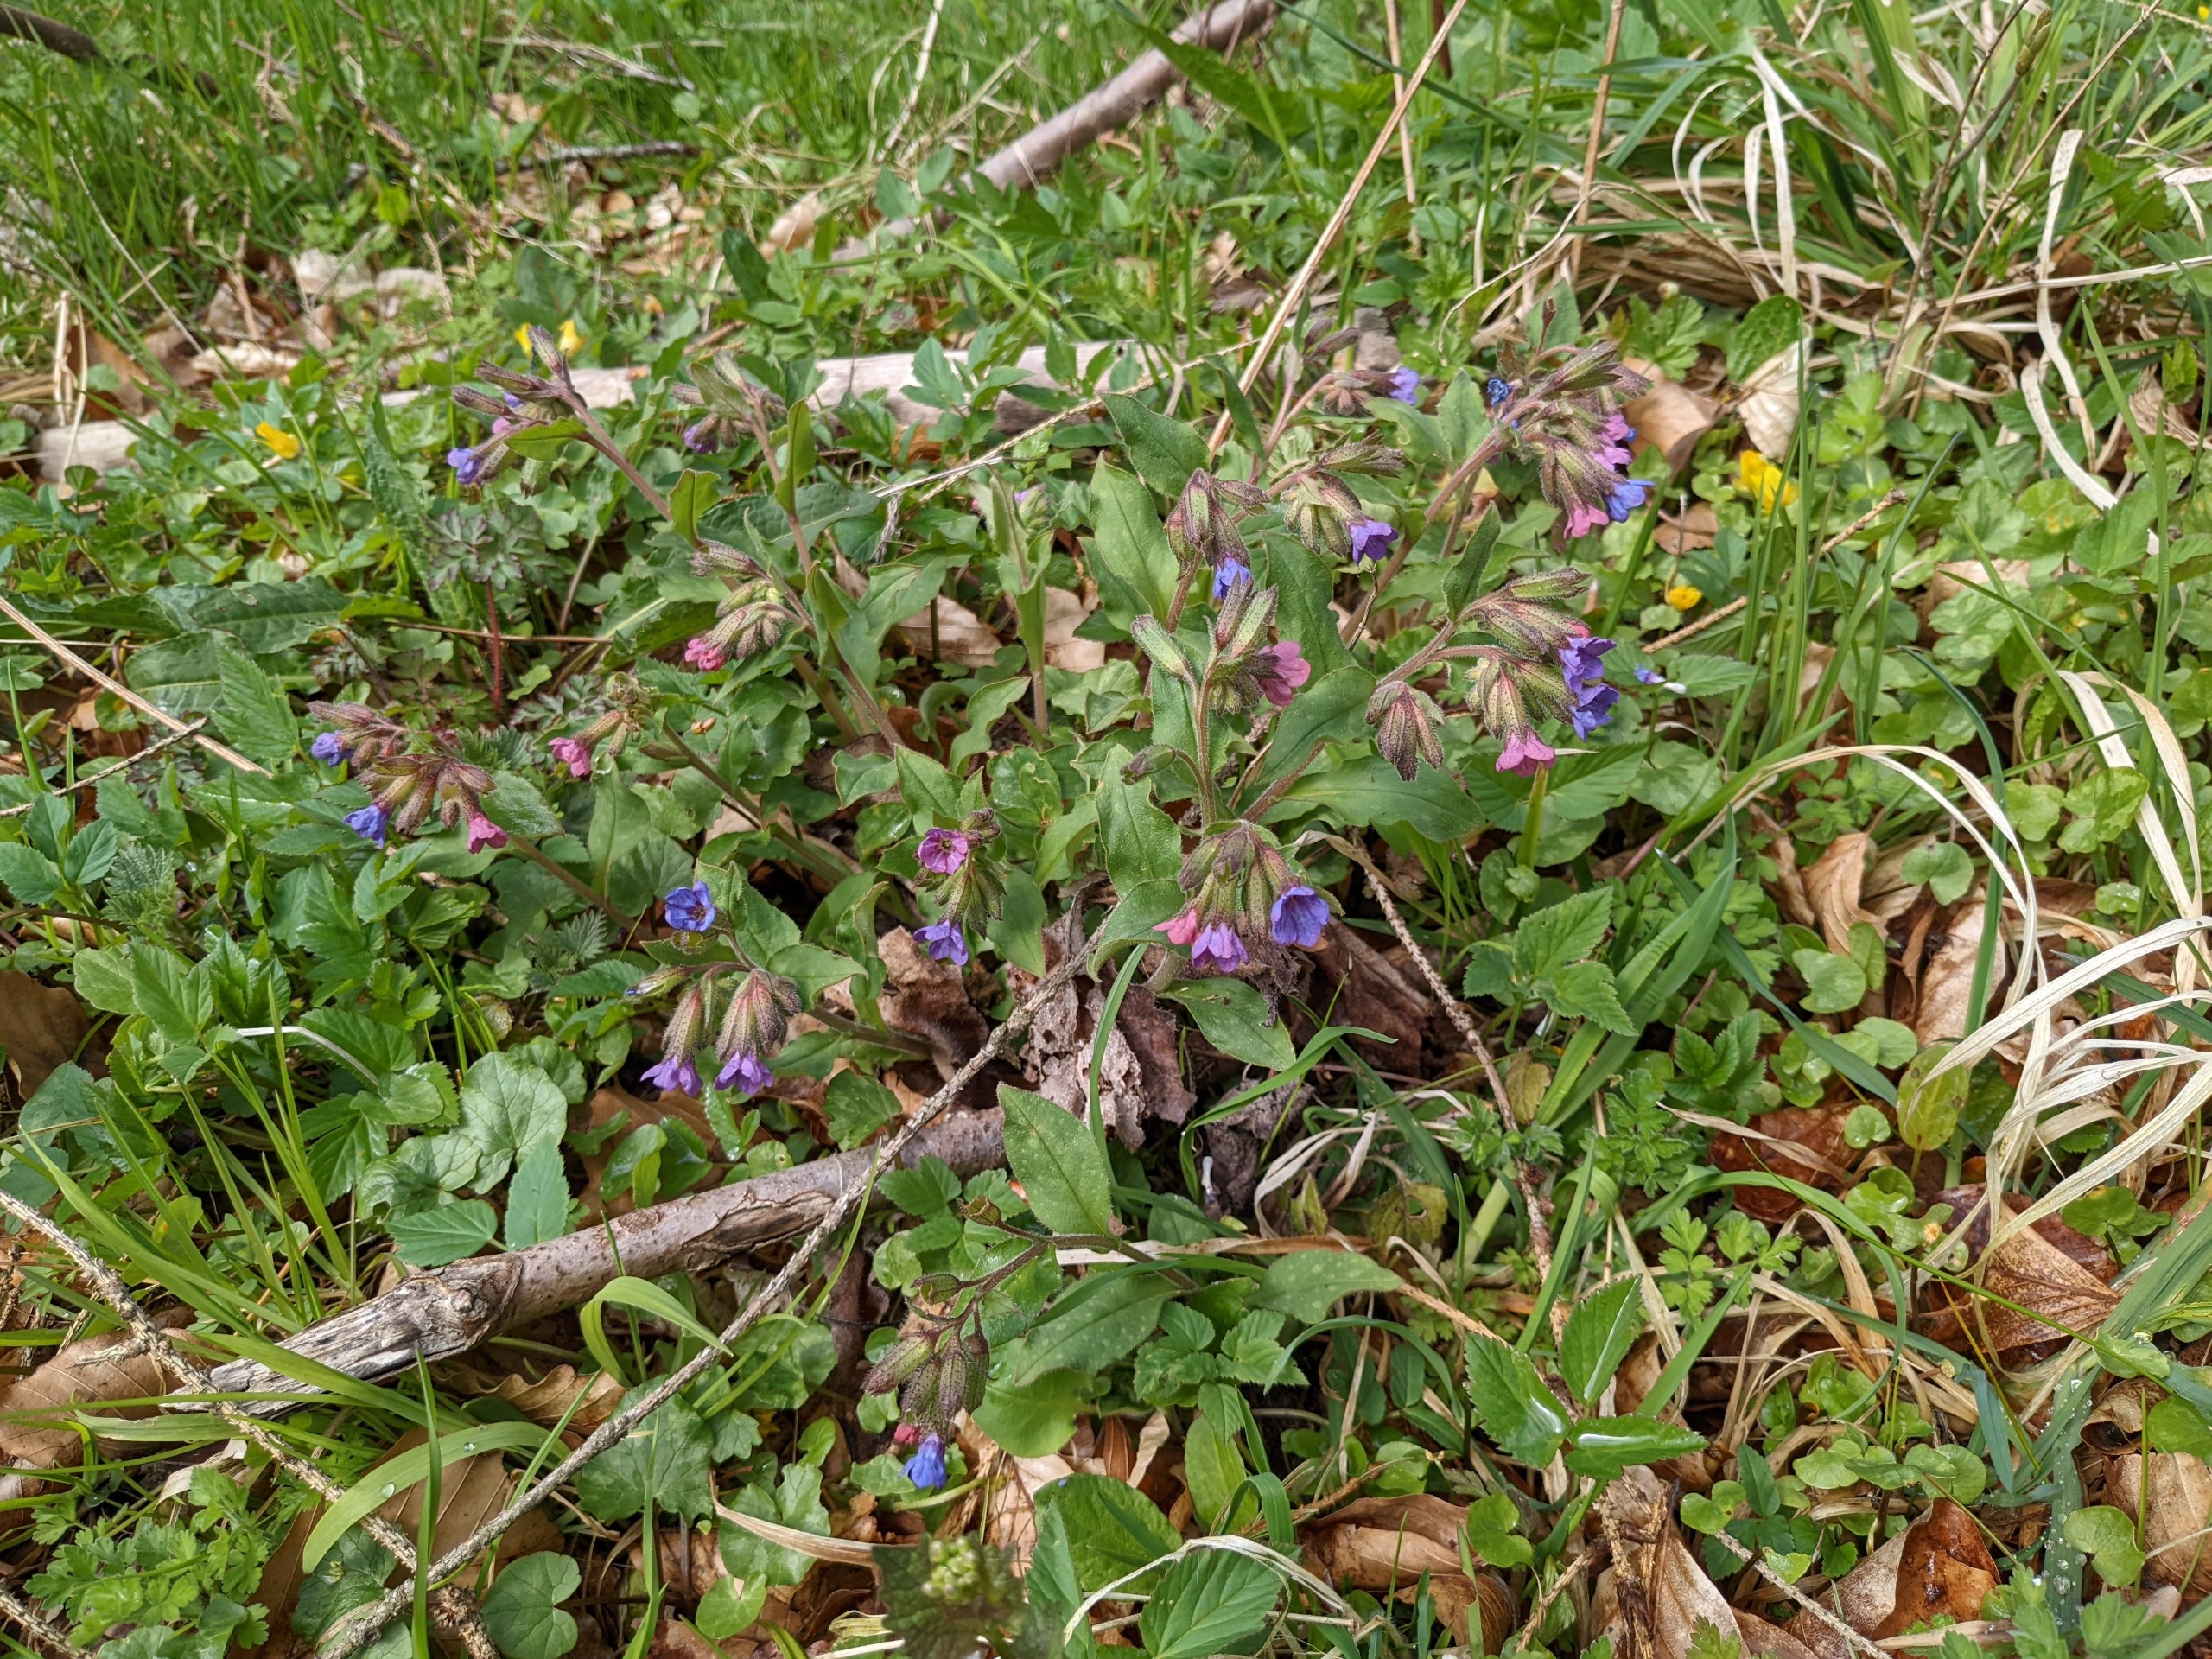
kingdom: Plantae
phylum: Tracheophyta
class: Magnoliopsida
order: Boraginales
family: Boraginaceae
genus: Pulmonaria
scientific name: Pulmonaria obscura
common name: Almindelig lungeurt
